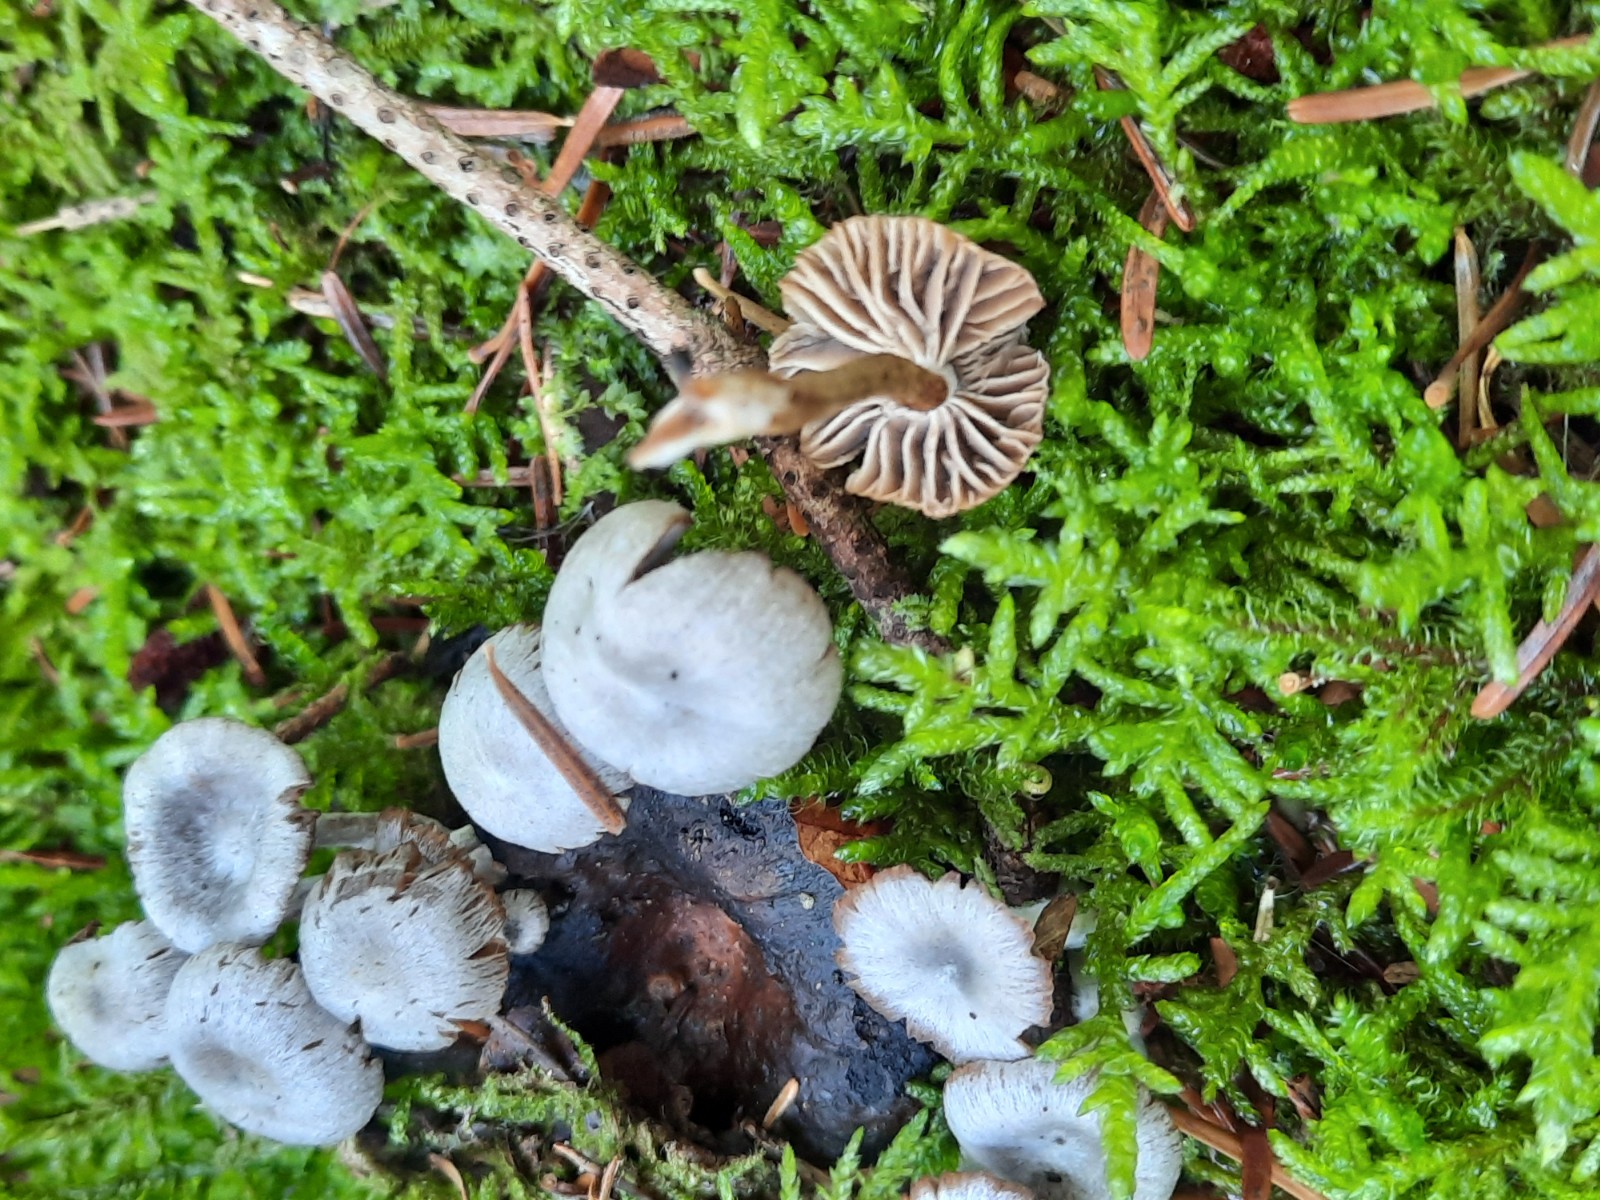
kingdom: Fungi
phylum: Basidiomycota
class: Agaricomycetes
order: Agaricales
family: Lyophyllaceae
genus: Asterophora
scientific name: Asterophora parasitica
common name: grå snyltehat
